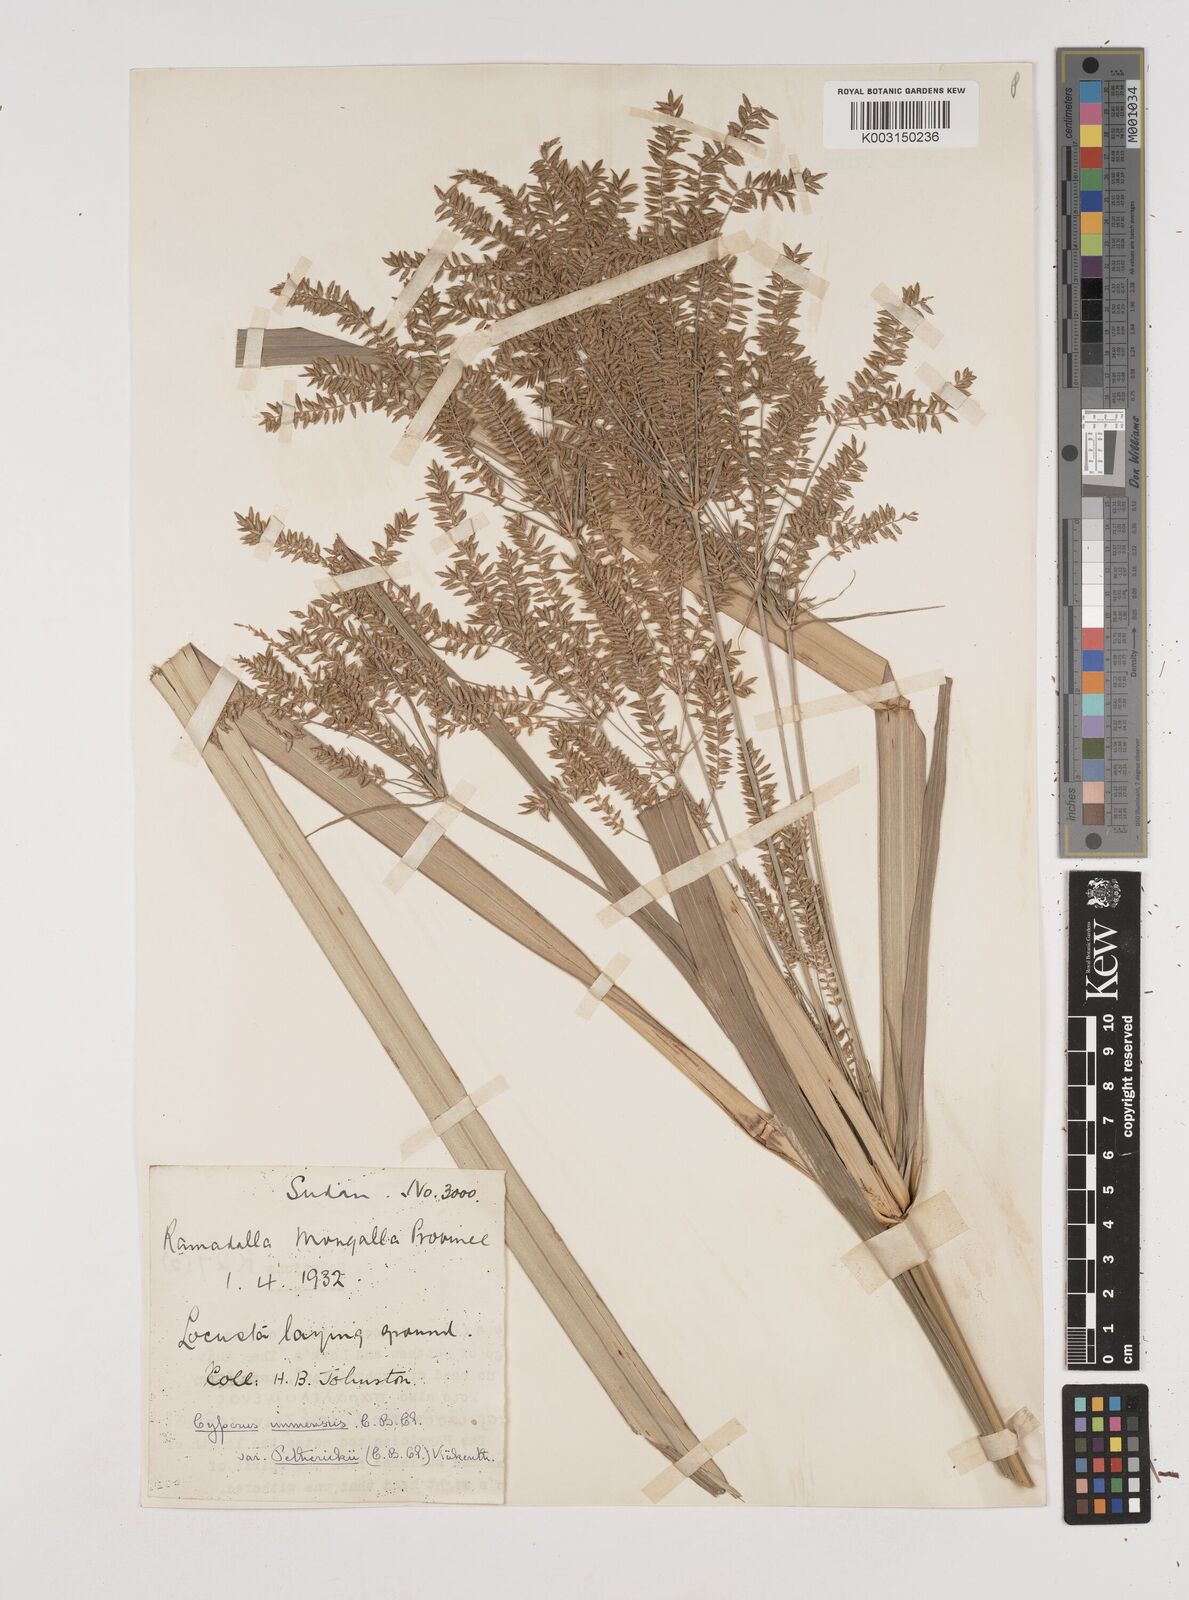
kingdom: Plantae
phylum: Tracheophyta
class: Liliopsida
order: Poales
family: Cyperaceae
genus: Cyperus
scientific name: Cyperus dives
